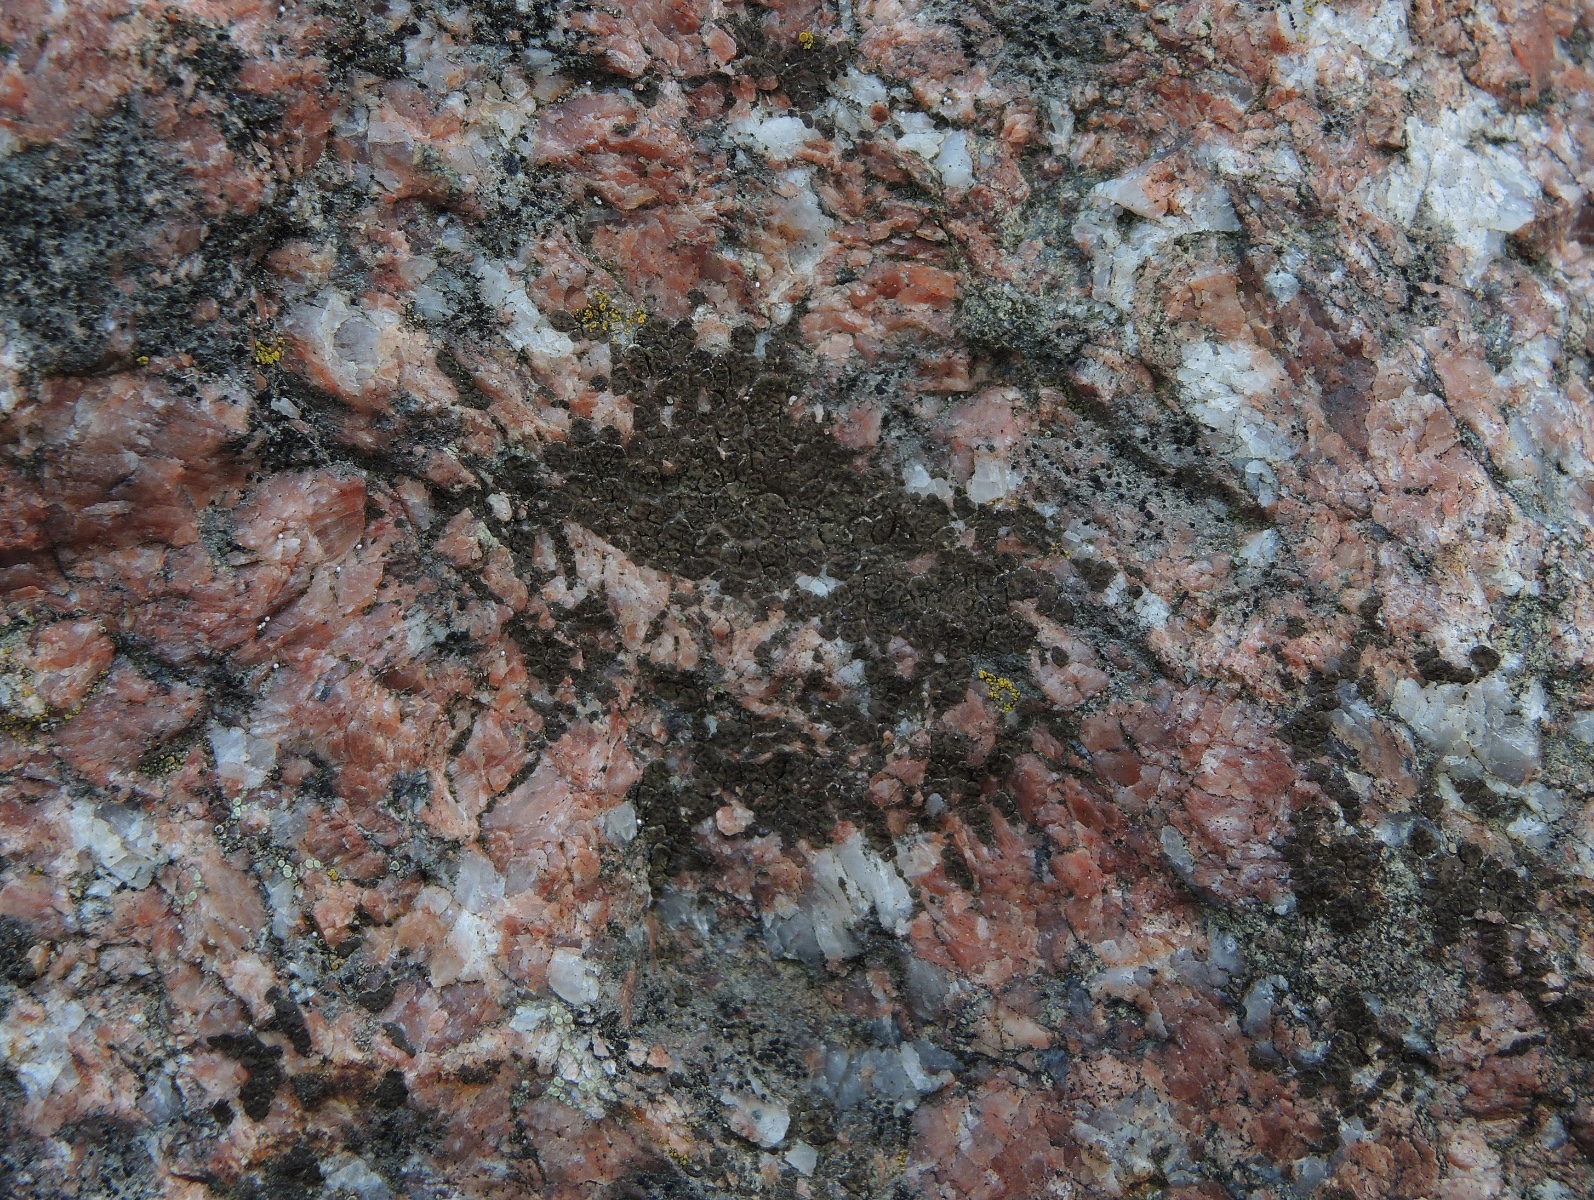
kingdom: Fungi
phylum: Ascomycota
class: Lecanoromycetes
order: Acarosporales
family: Acarosporaceae
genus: Acarospora
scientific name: Acarospora fuscata
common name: brun småsporelav
